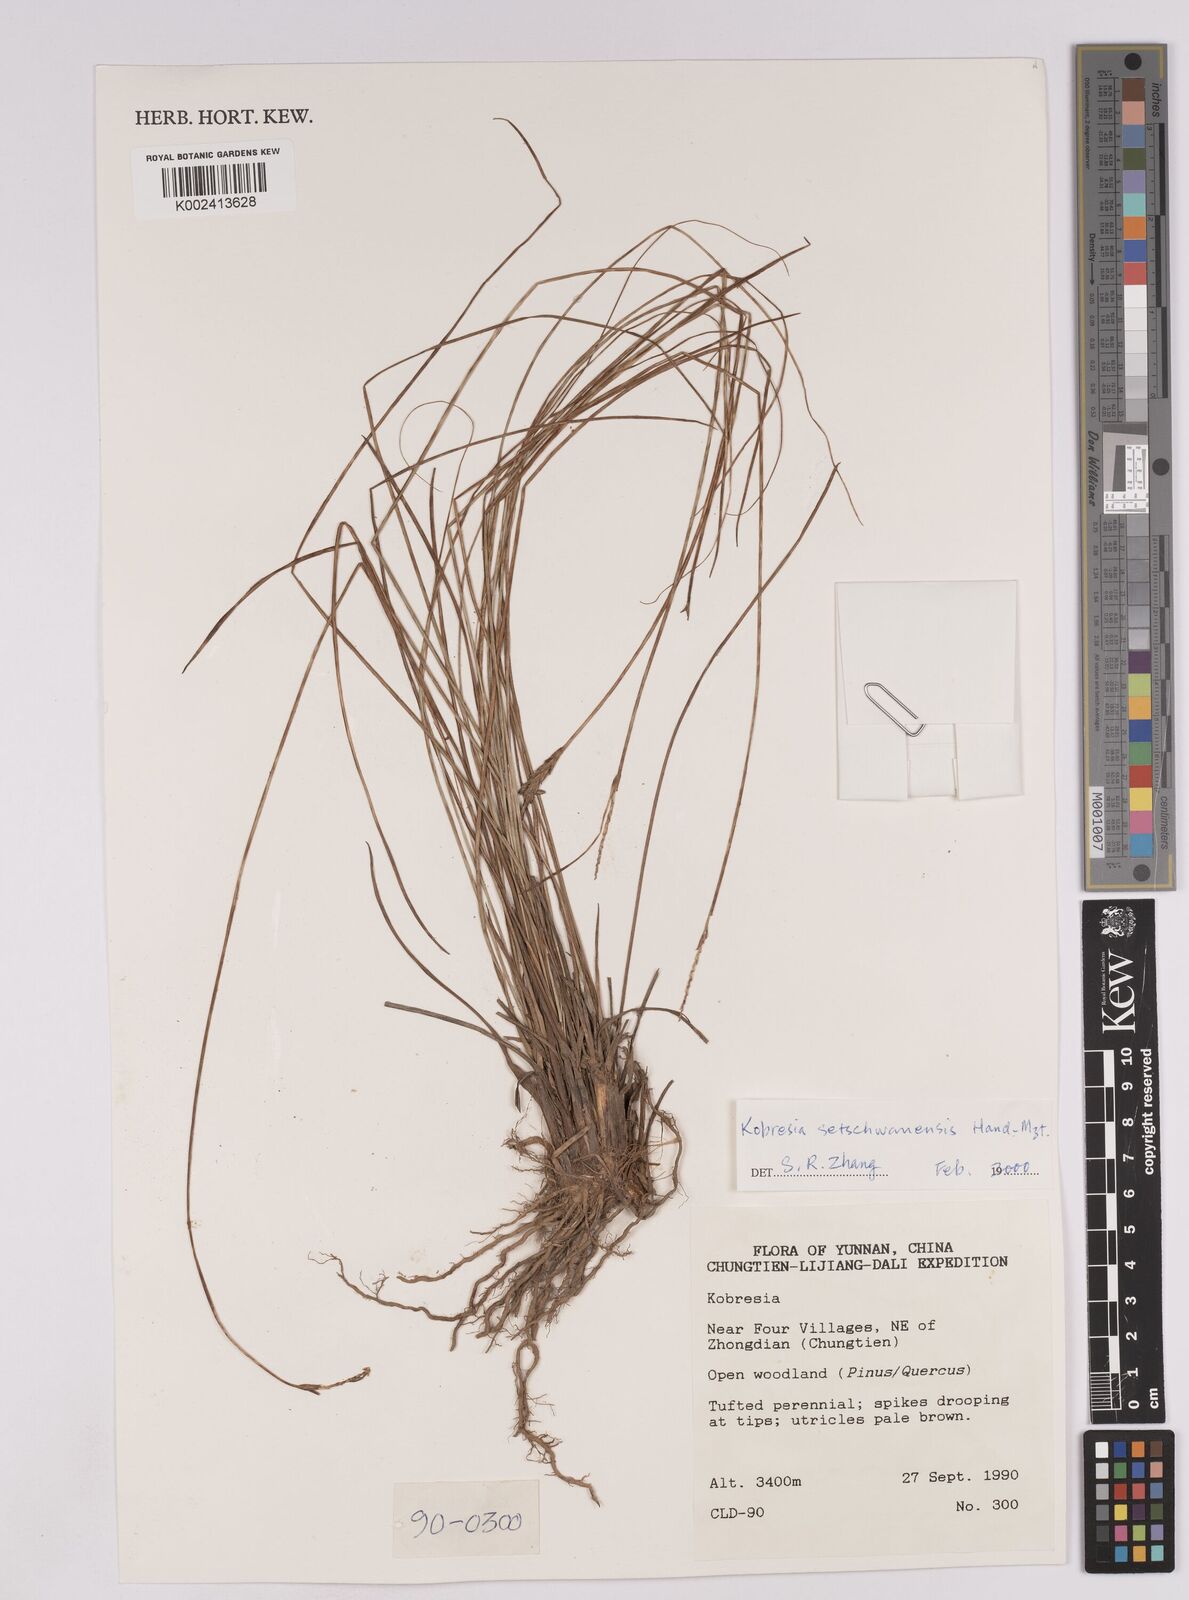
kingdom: Plantae
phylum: Tracheophyta
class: Liliopsida
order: Poales
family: Cyperaceae
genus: Carex
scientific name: Carex setschwanensis
